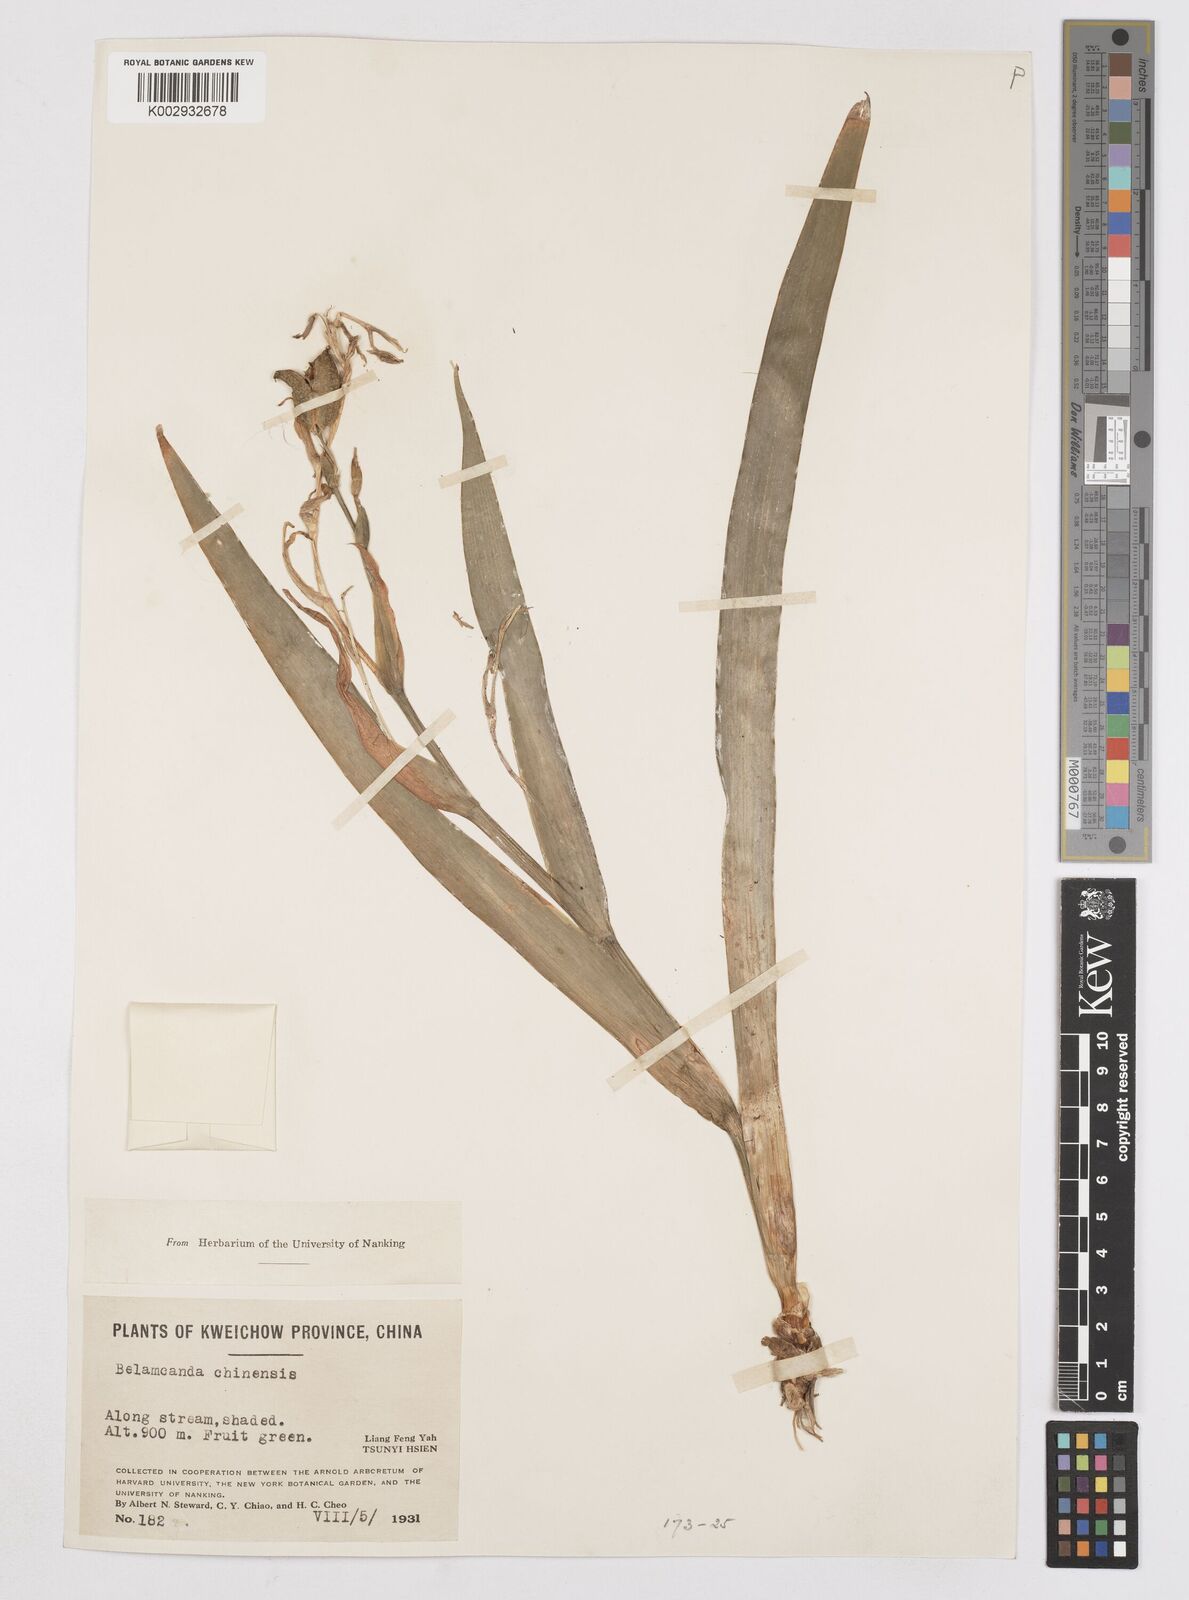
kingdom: Plantae
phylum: Tracheophyta
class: Liliopsida
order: Asparagales
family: Iridaceae
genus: Iris
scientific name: Iris
